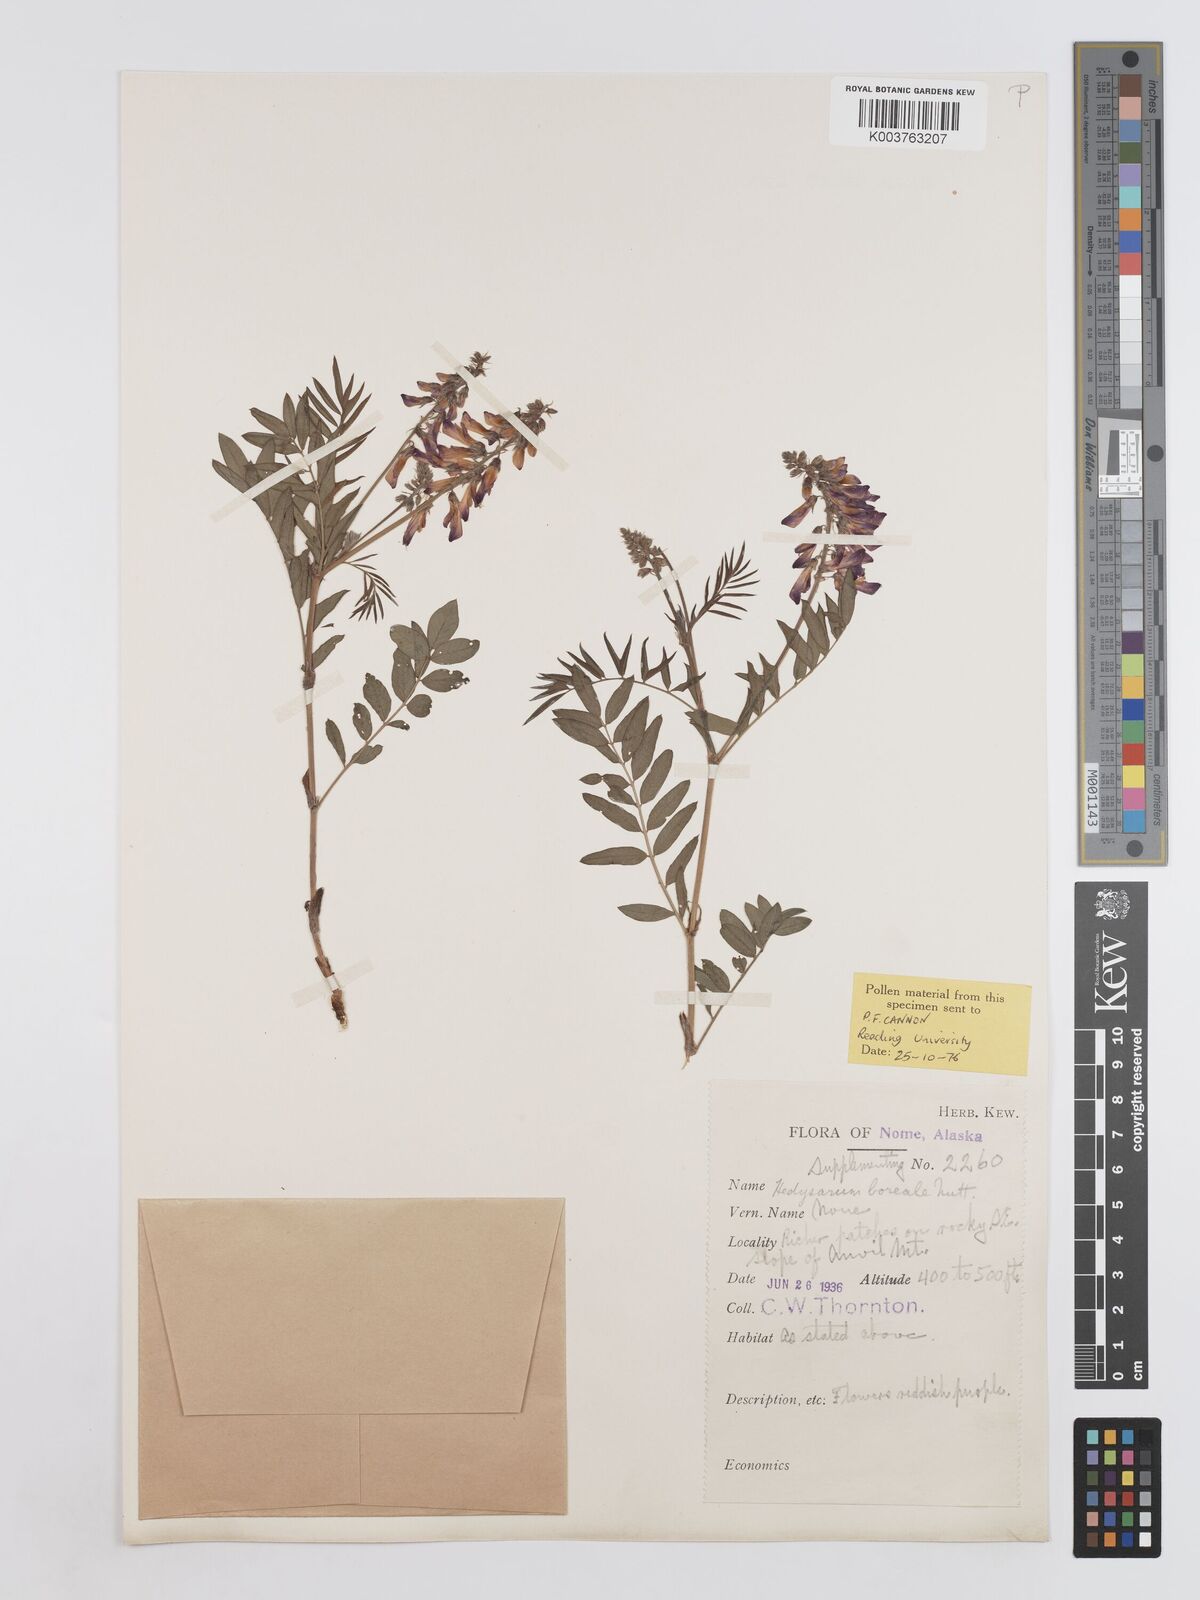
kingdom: Plantae
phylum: Tracheophyta
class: Magnoliopsida
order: Fabales
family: Fabaceae
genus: Hedysarum
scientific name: Hedysarum boreale
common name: Northern sweet-vetch
